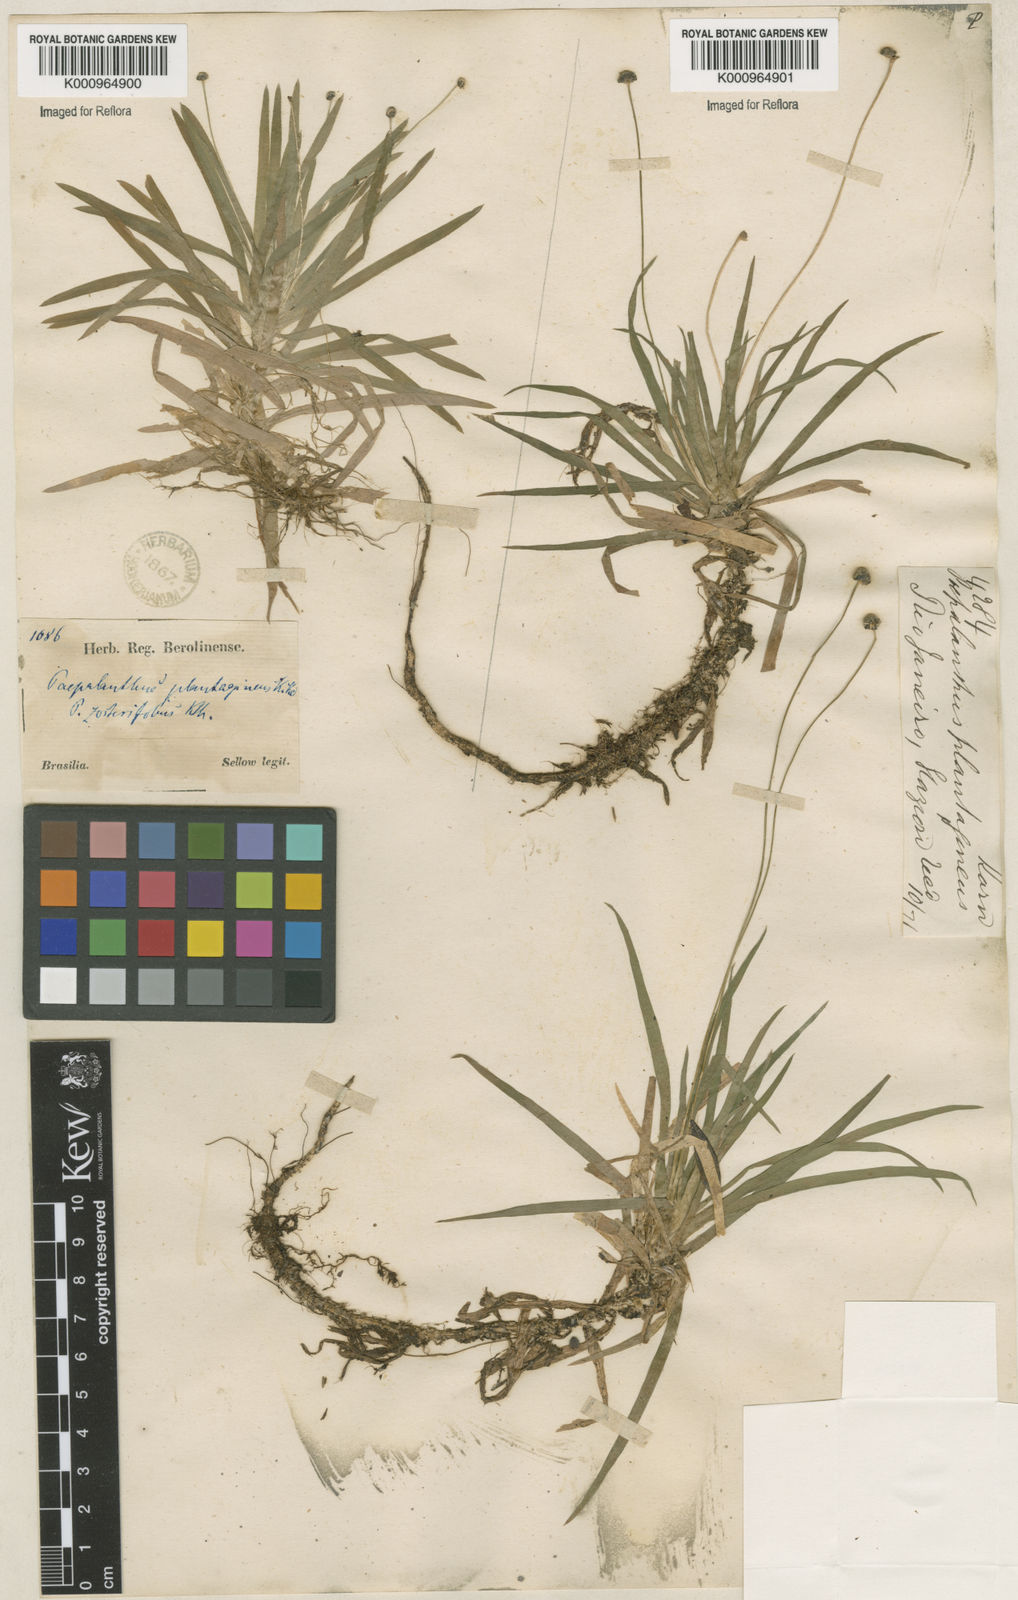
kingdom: Plantae
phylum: Tracheophyta
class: Liliopsida
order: Poales
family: Eriocaulaceae
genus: Paepalanthus
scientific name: Paepalanthus
